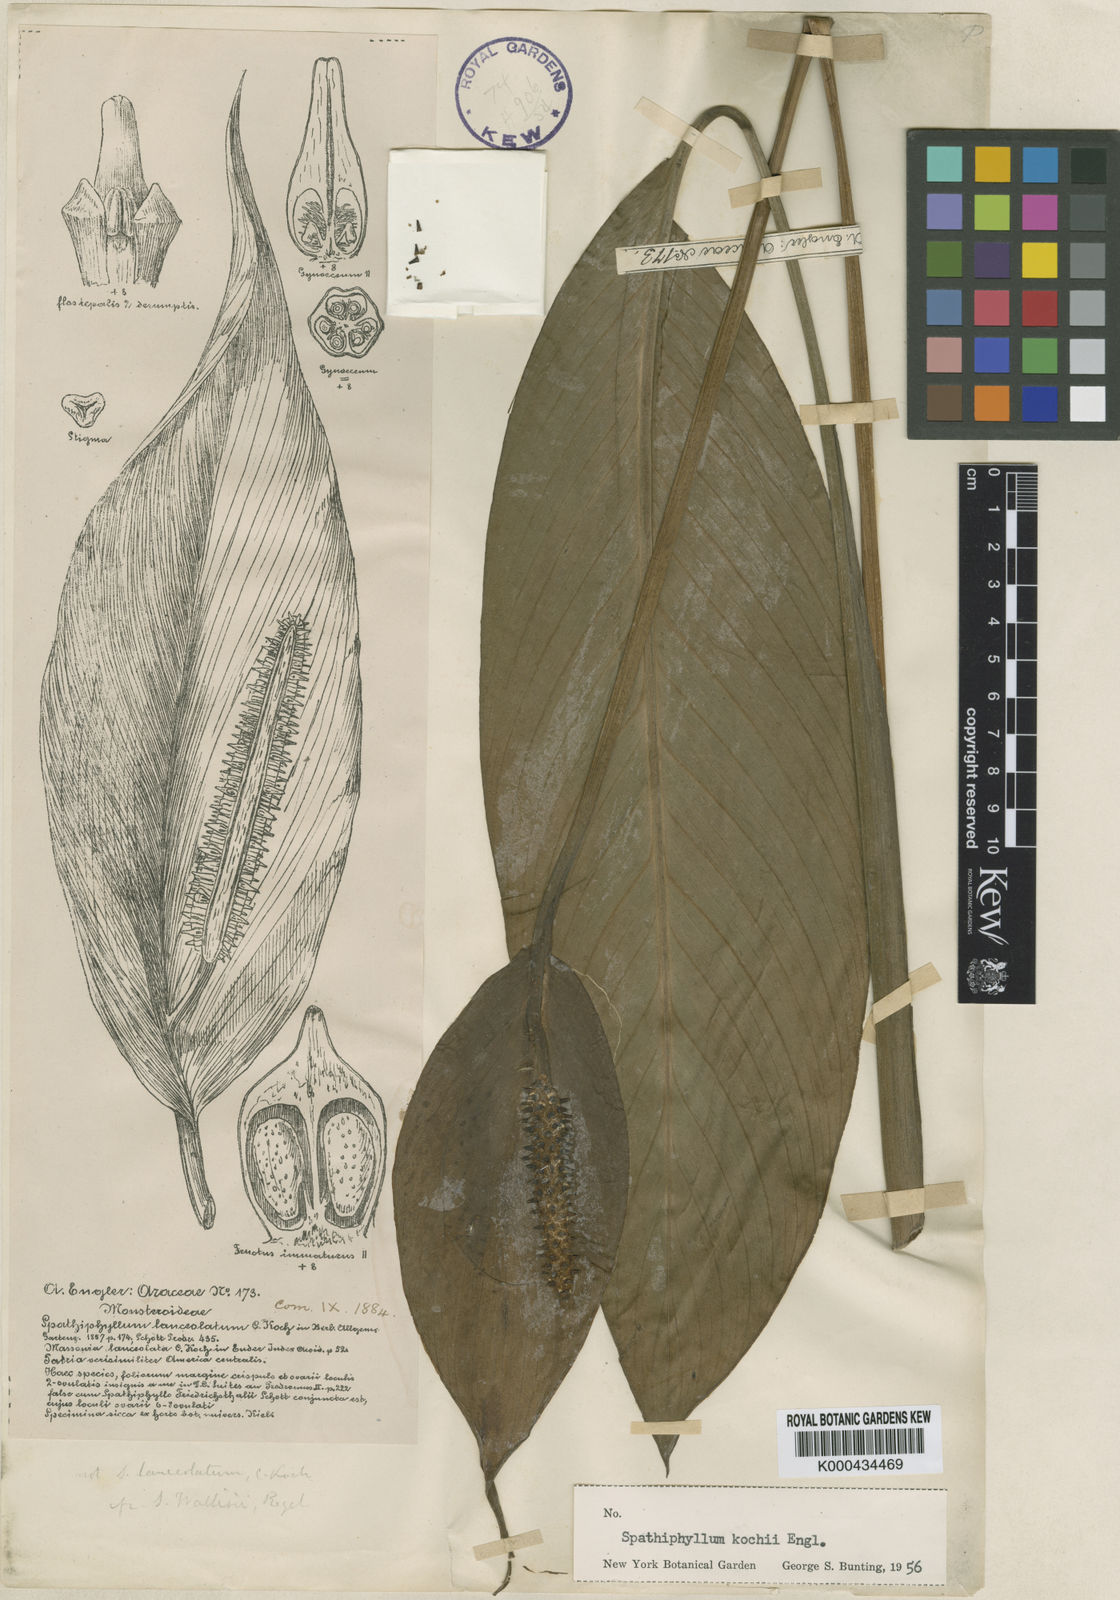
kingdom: Plantae
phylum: Tracheophyta
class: Liliopsida
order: Alismatales
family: Araceae
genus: Spathiphyllum
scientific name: Spathiphyllum lanceifolium
